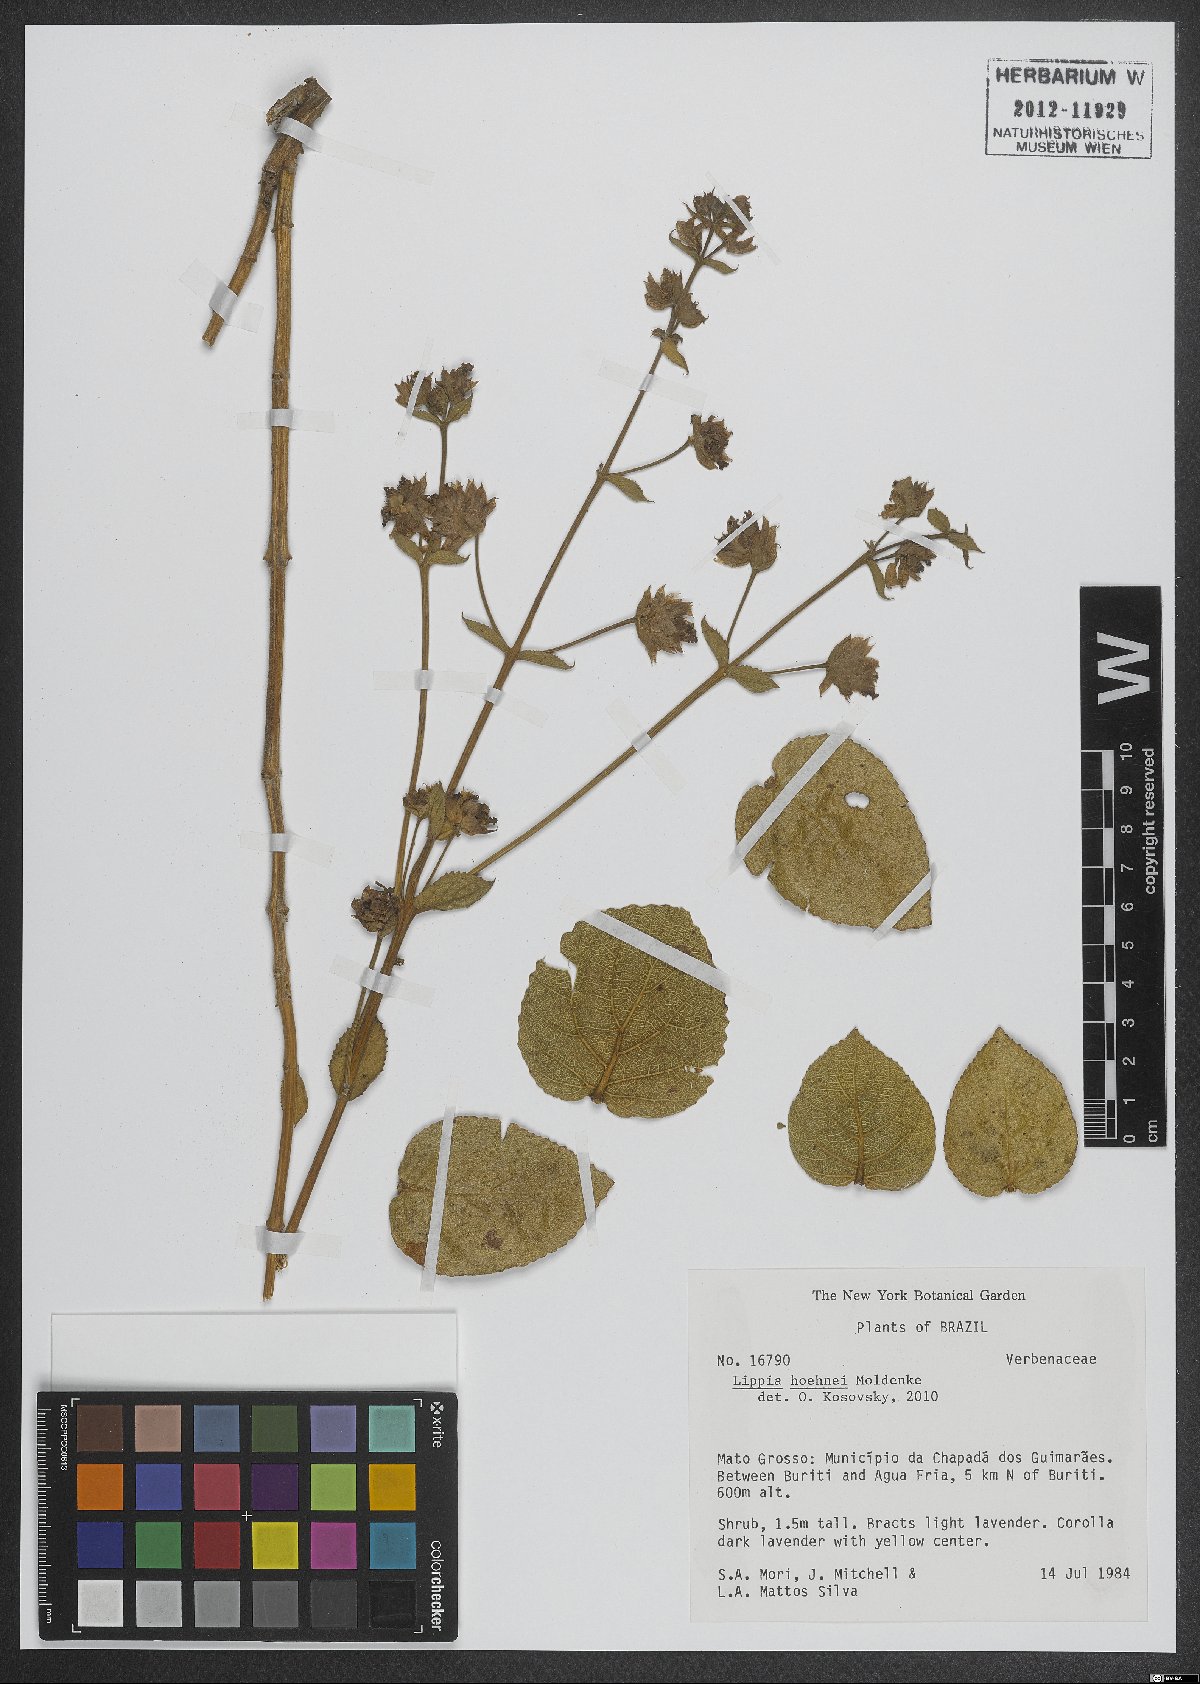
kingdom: Plantae
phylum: Tracheophyta
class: Magnoliopsida
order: Lamiales
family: Verbenaceae
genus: Lippia
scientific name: Lippia hoehnei
